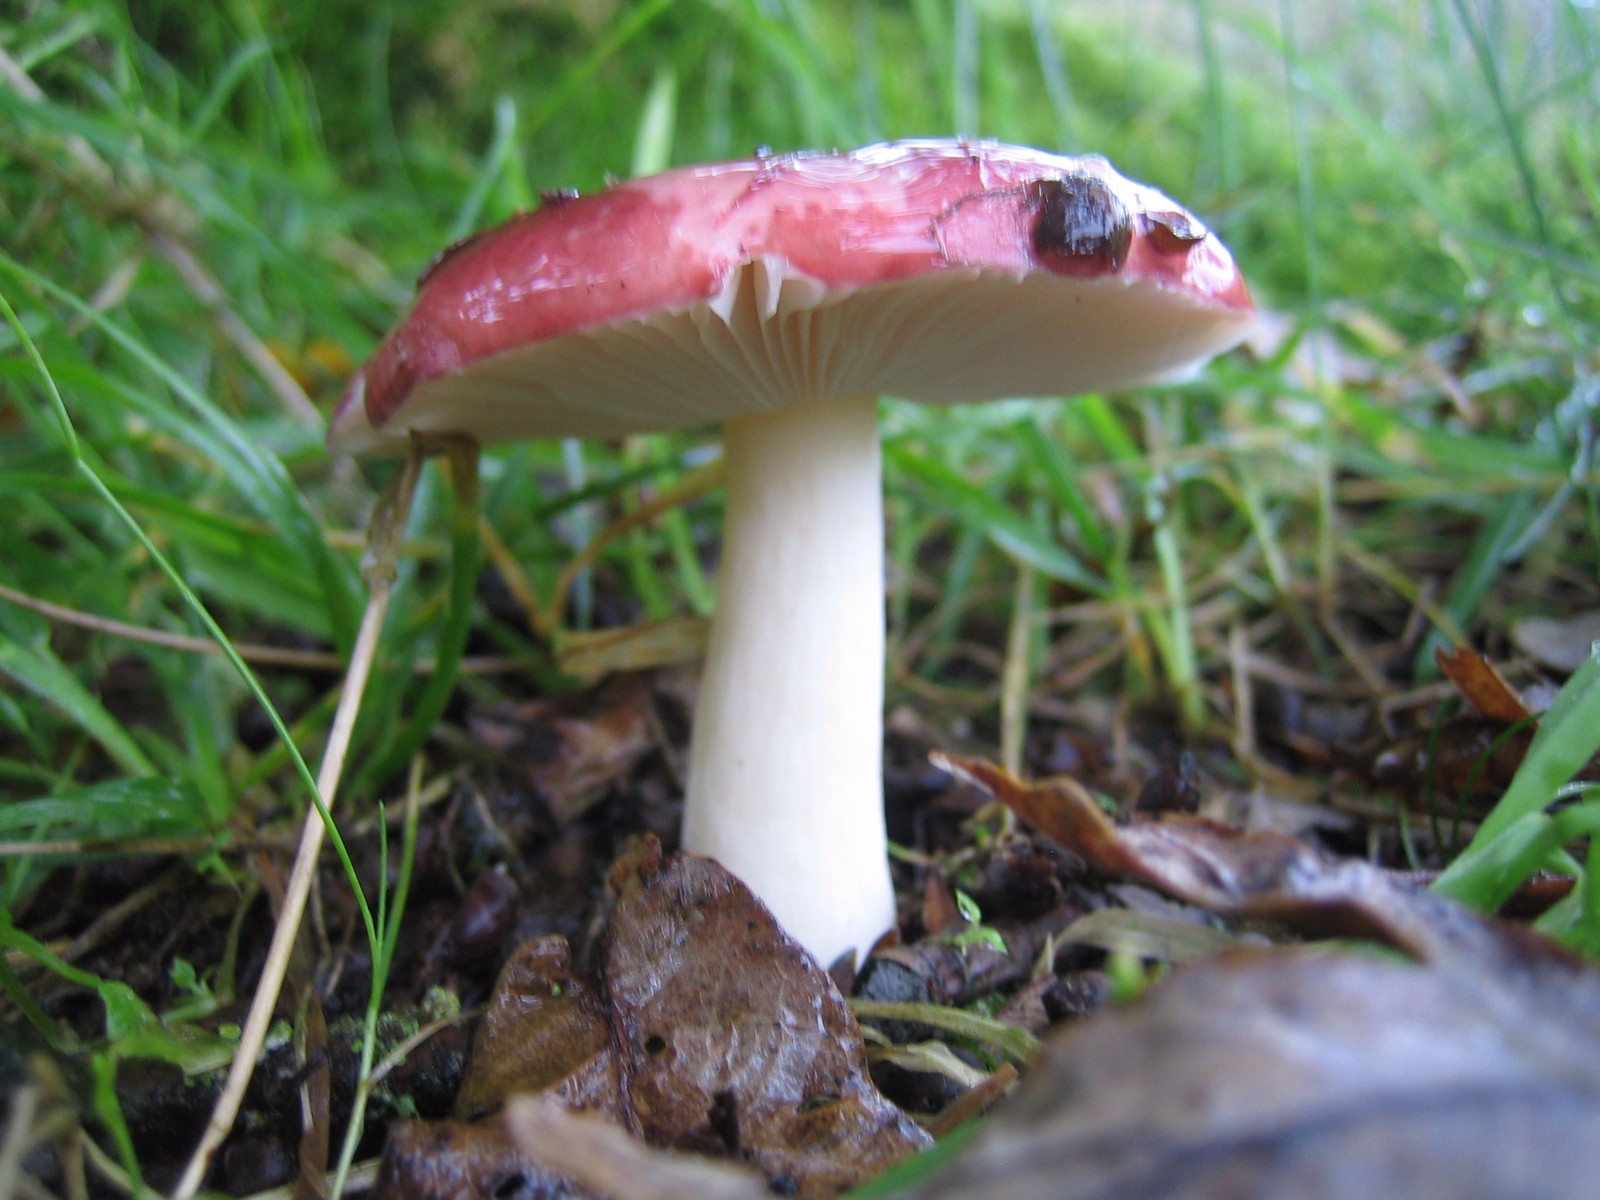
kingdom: Fungi
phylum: Basidiomycota
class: Agaricomycetes
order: Russulales
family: Russulaceae
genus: Russula
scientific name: Russula
